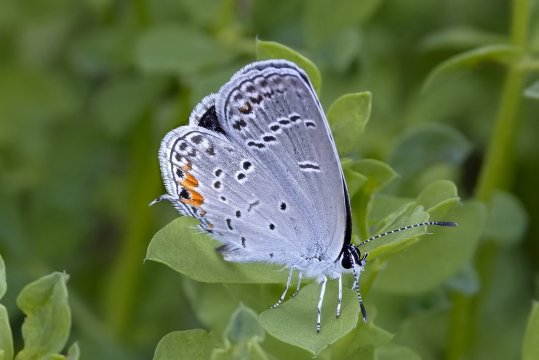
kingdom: Animalia
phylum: Arthropoda
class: Insecta
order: Lepidoptera
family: Lycaenidae
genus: Elkalyce
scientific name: Elkalyce comyntas
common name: Eastern Tailed-Blue
